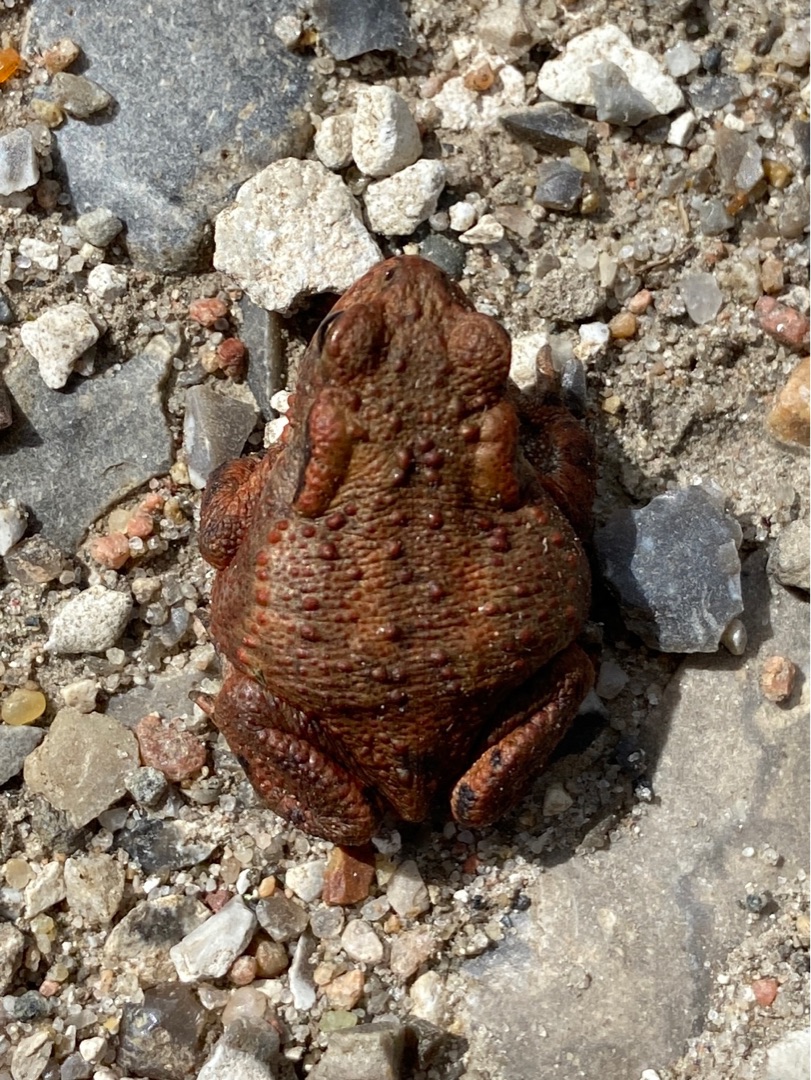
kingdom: Animalia
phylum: Chordata
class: Amphibia
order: Anura
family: Bufonidae
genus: Bufo
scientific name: Bufo bufo
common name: Skrubtudse
